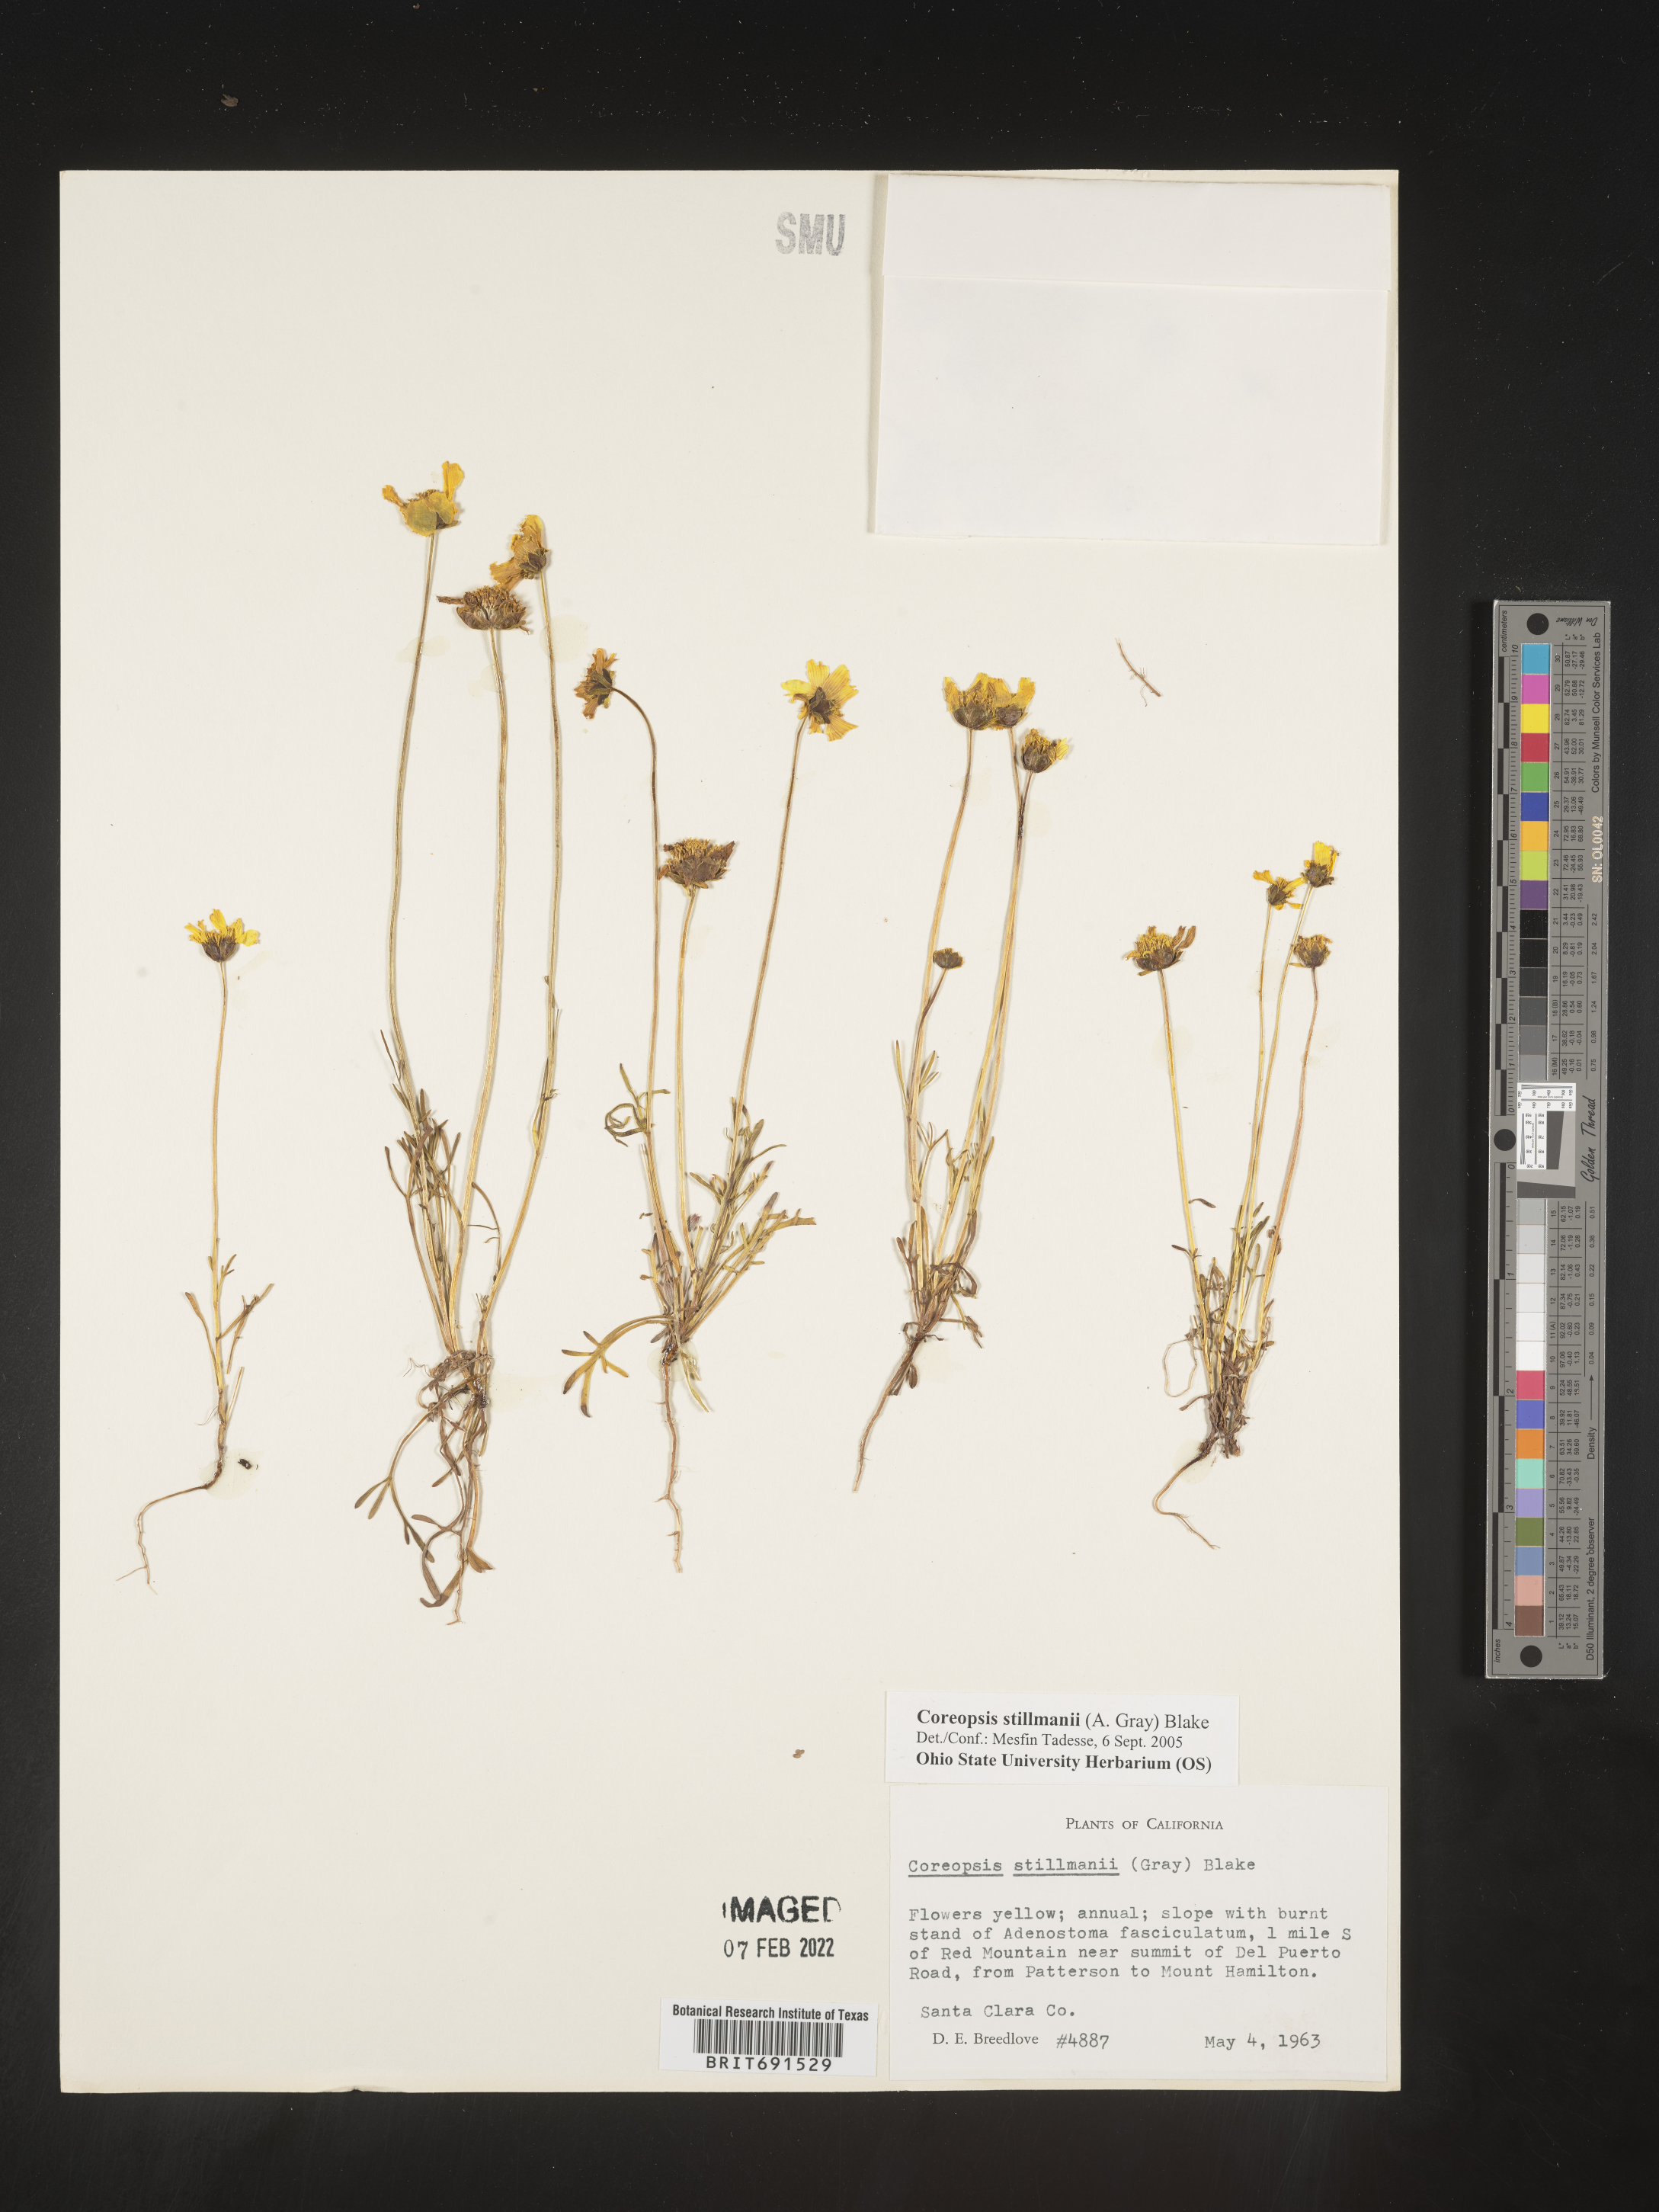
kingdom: Plantae
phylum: Tracheophyta
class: Magnoliopsida
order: Asterales
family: Asteraceae
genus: Coreopsis
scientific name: Coreopsis
